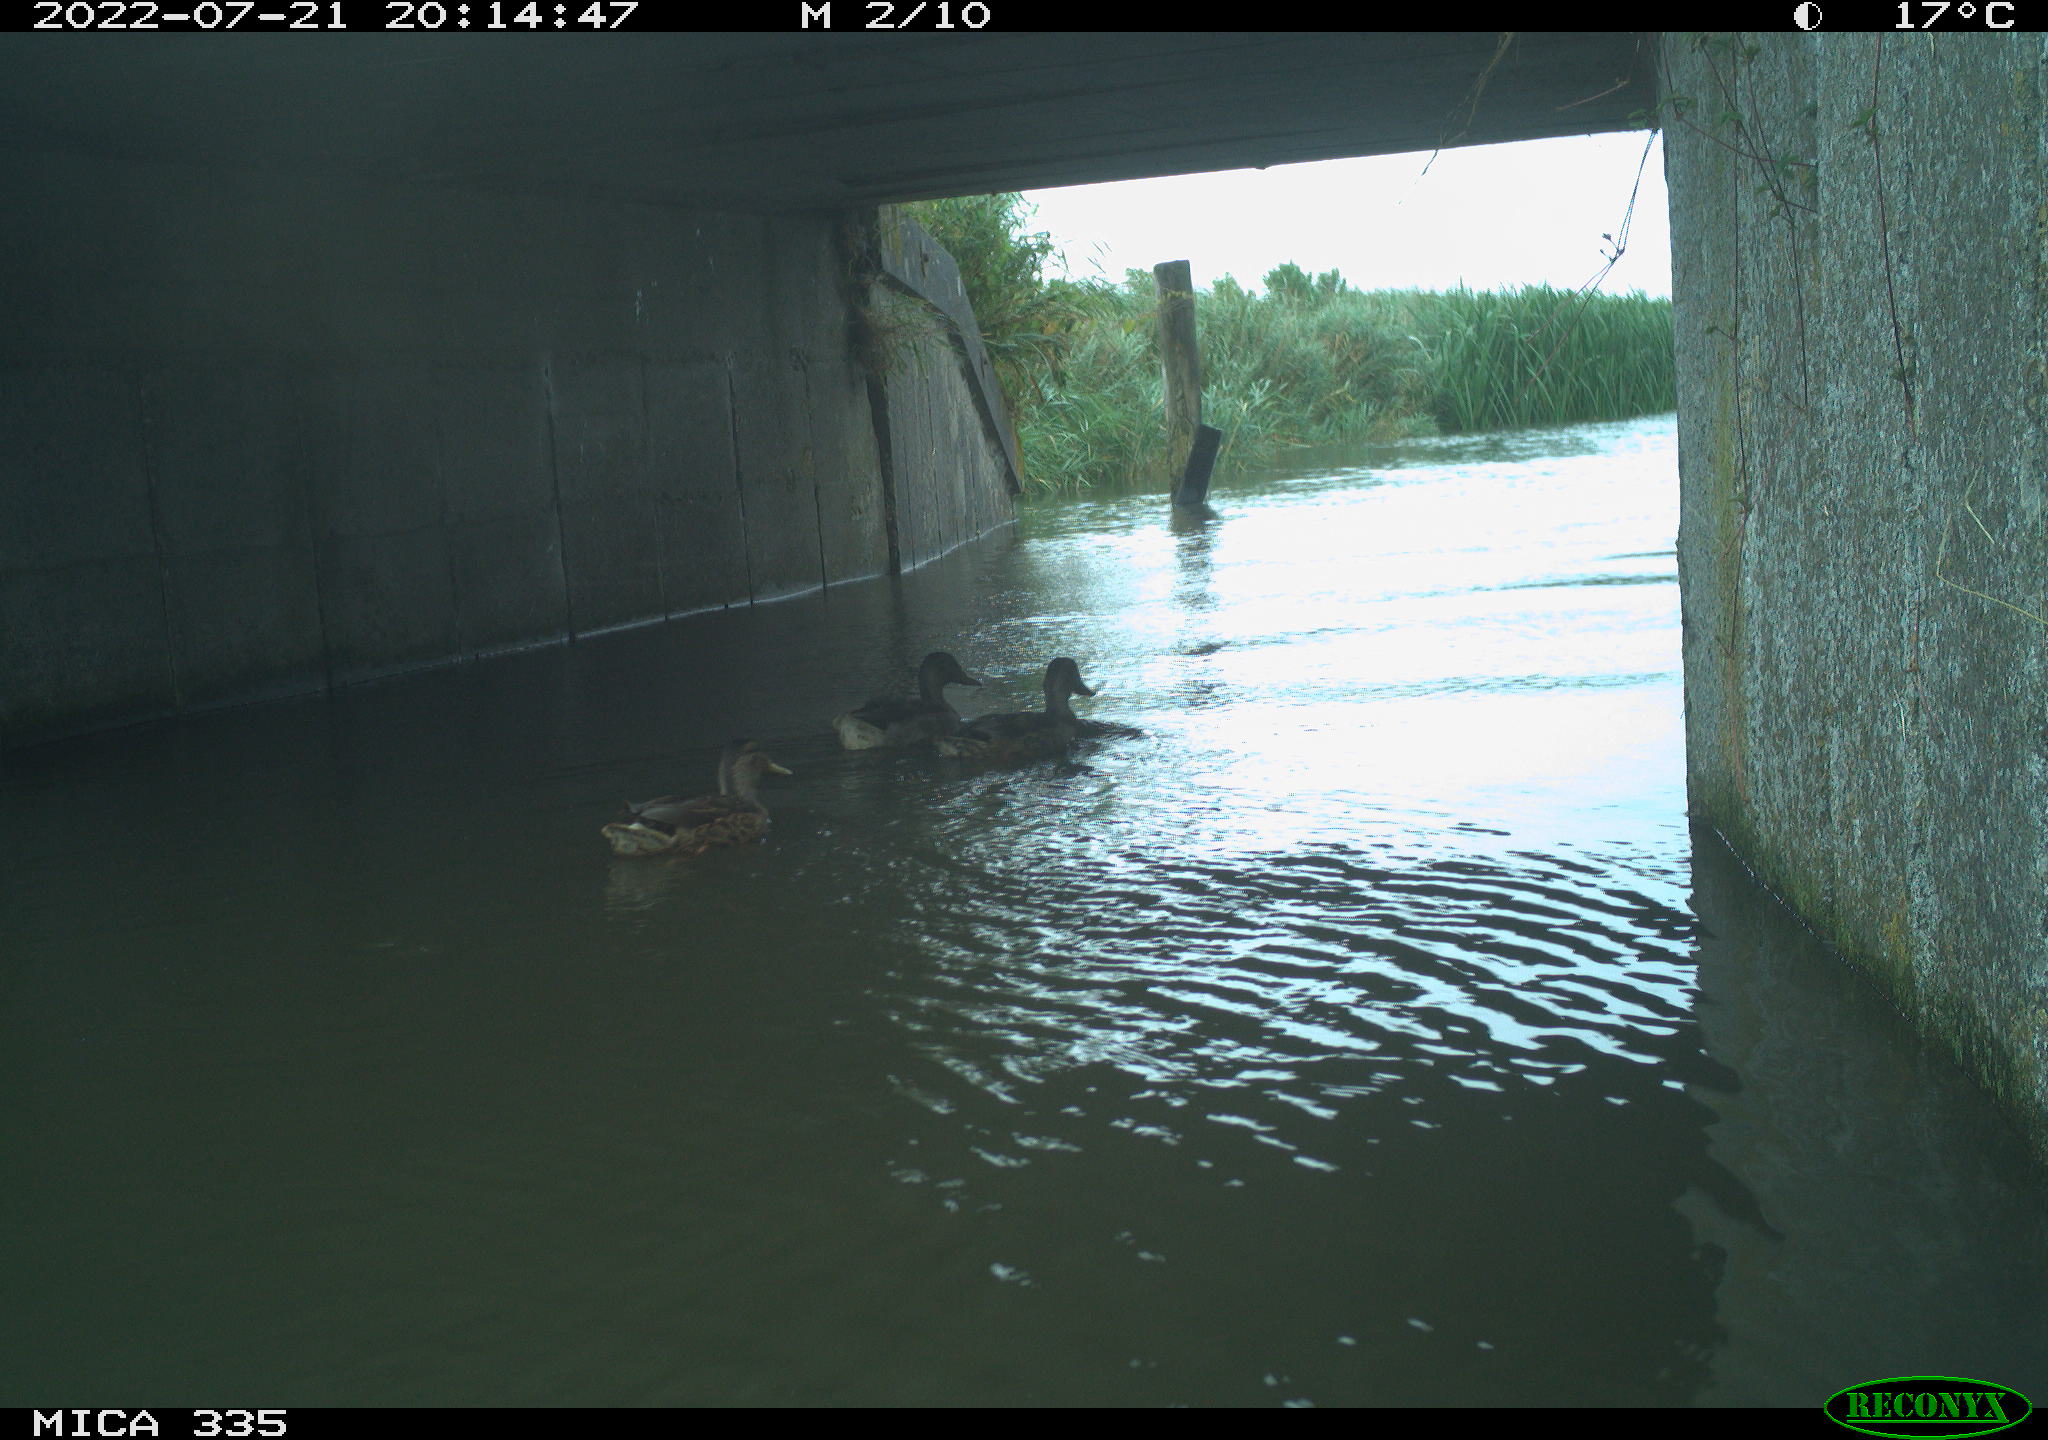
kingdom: Animalia
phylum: Chordata
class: Aves
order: Anseriformes
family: Anatidae
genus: Anas
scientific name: Anas platyrhynchos
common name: Mallard
